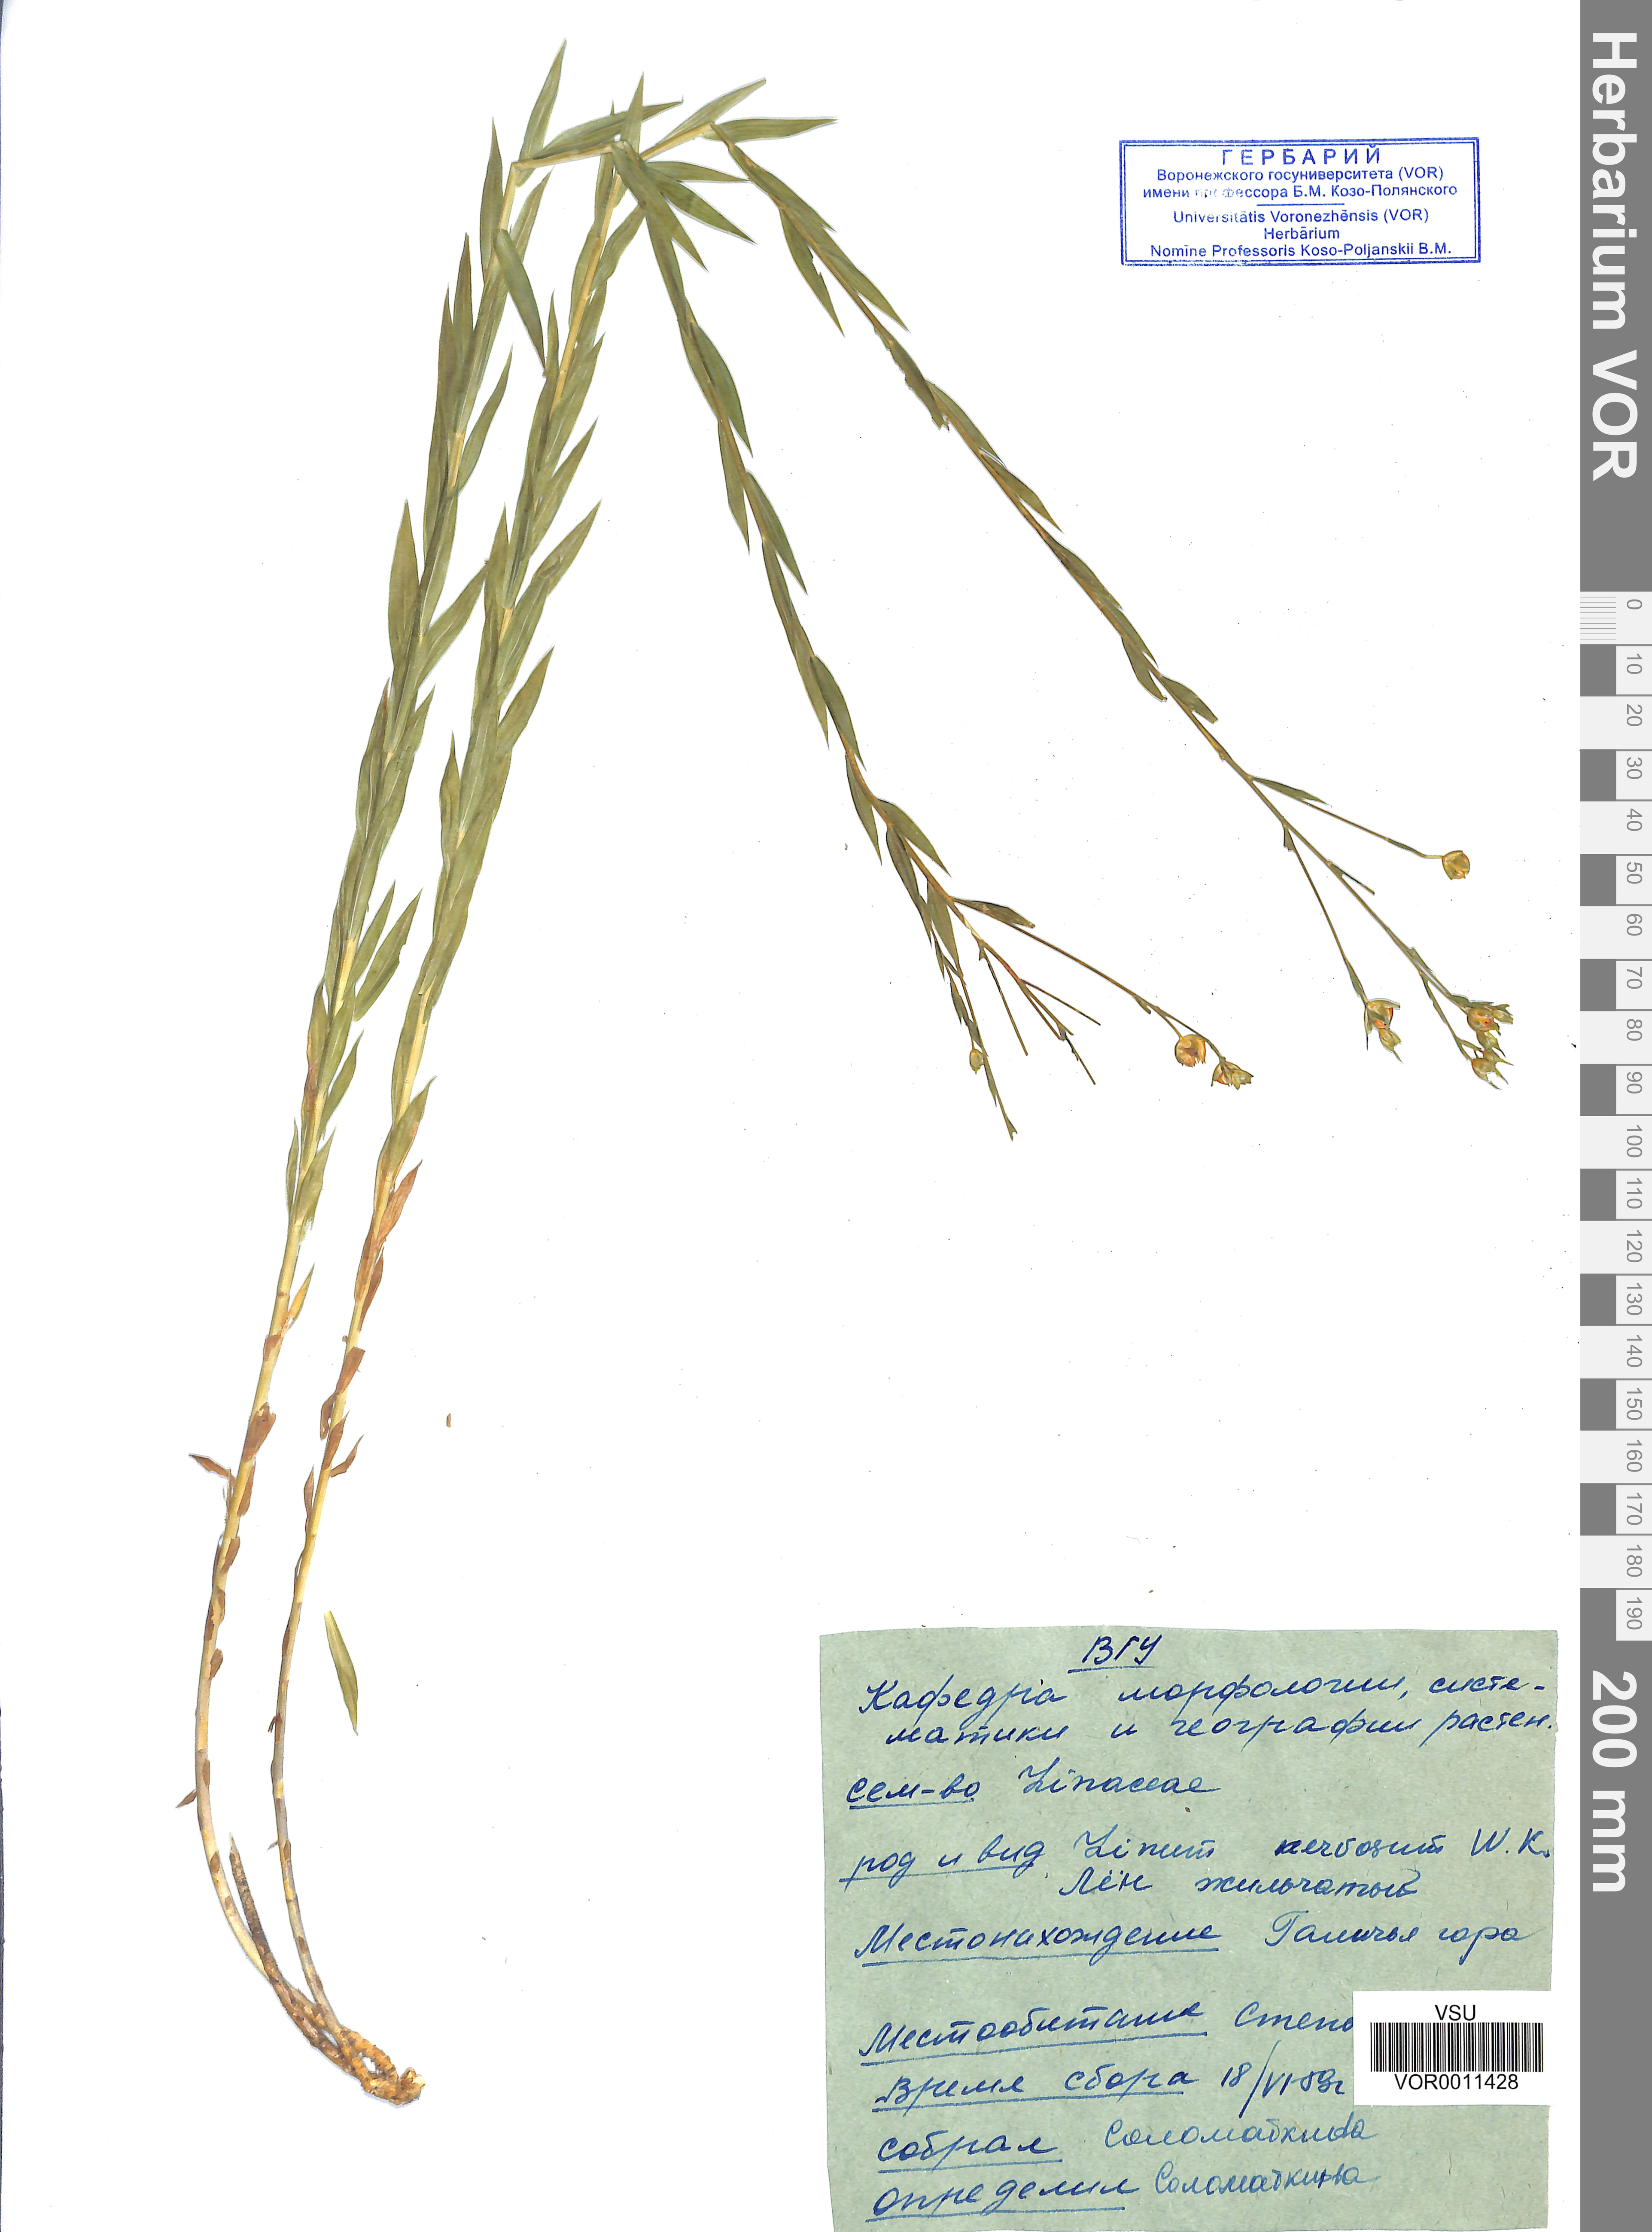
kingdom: Plantae
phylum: Tracheophyta
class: Magnoliopsida
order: Malpighiales
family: Linaceae
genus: Linum
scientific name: Linum nervosum
